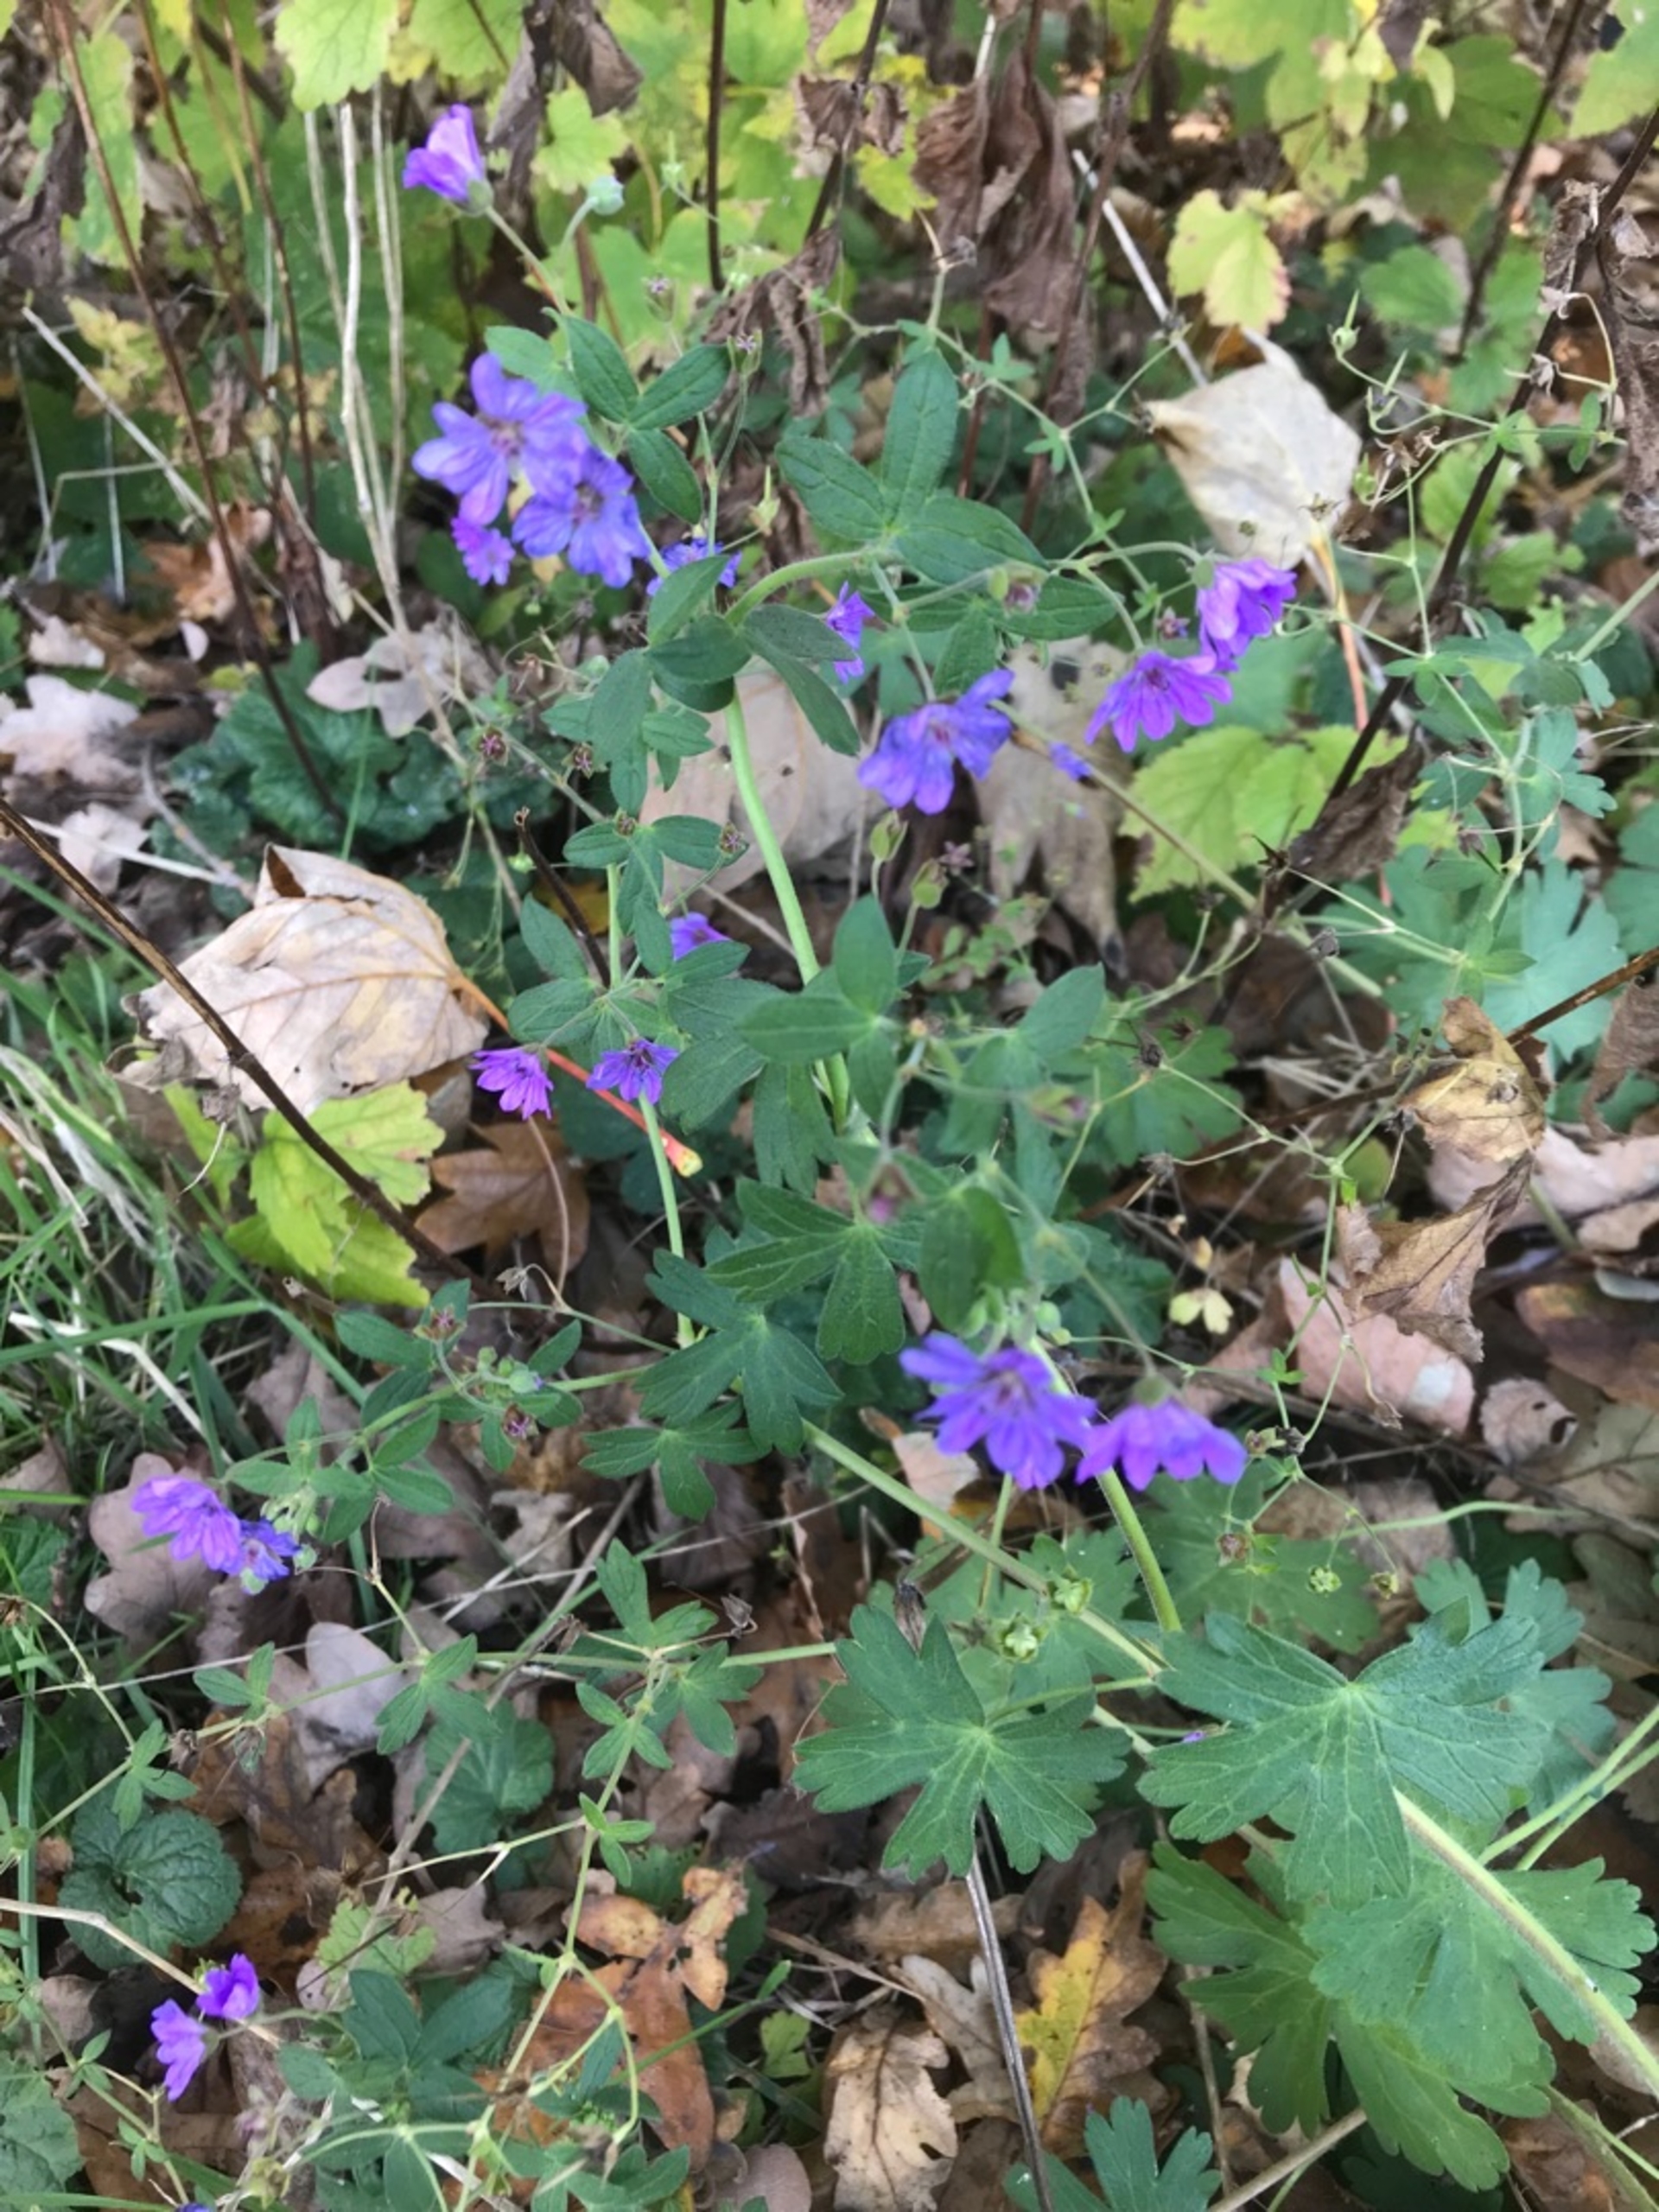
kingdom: Plantae
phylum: Tracheophyta
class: Magnoliopsida
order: Geraniales
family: Geraniaceae
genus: Geranium
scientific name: Geranium pyrenaicum
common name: Pyrenæisk storkenæb
